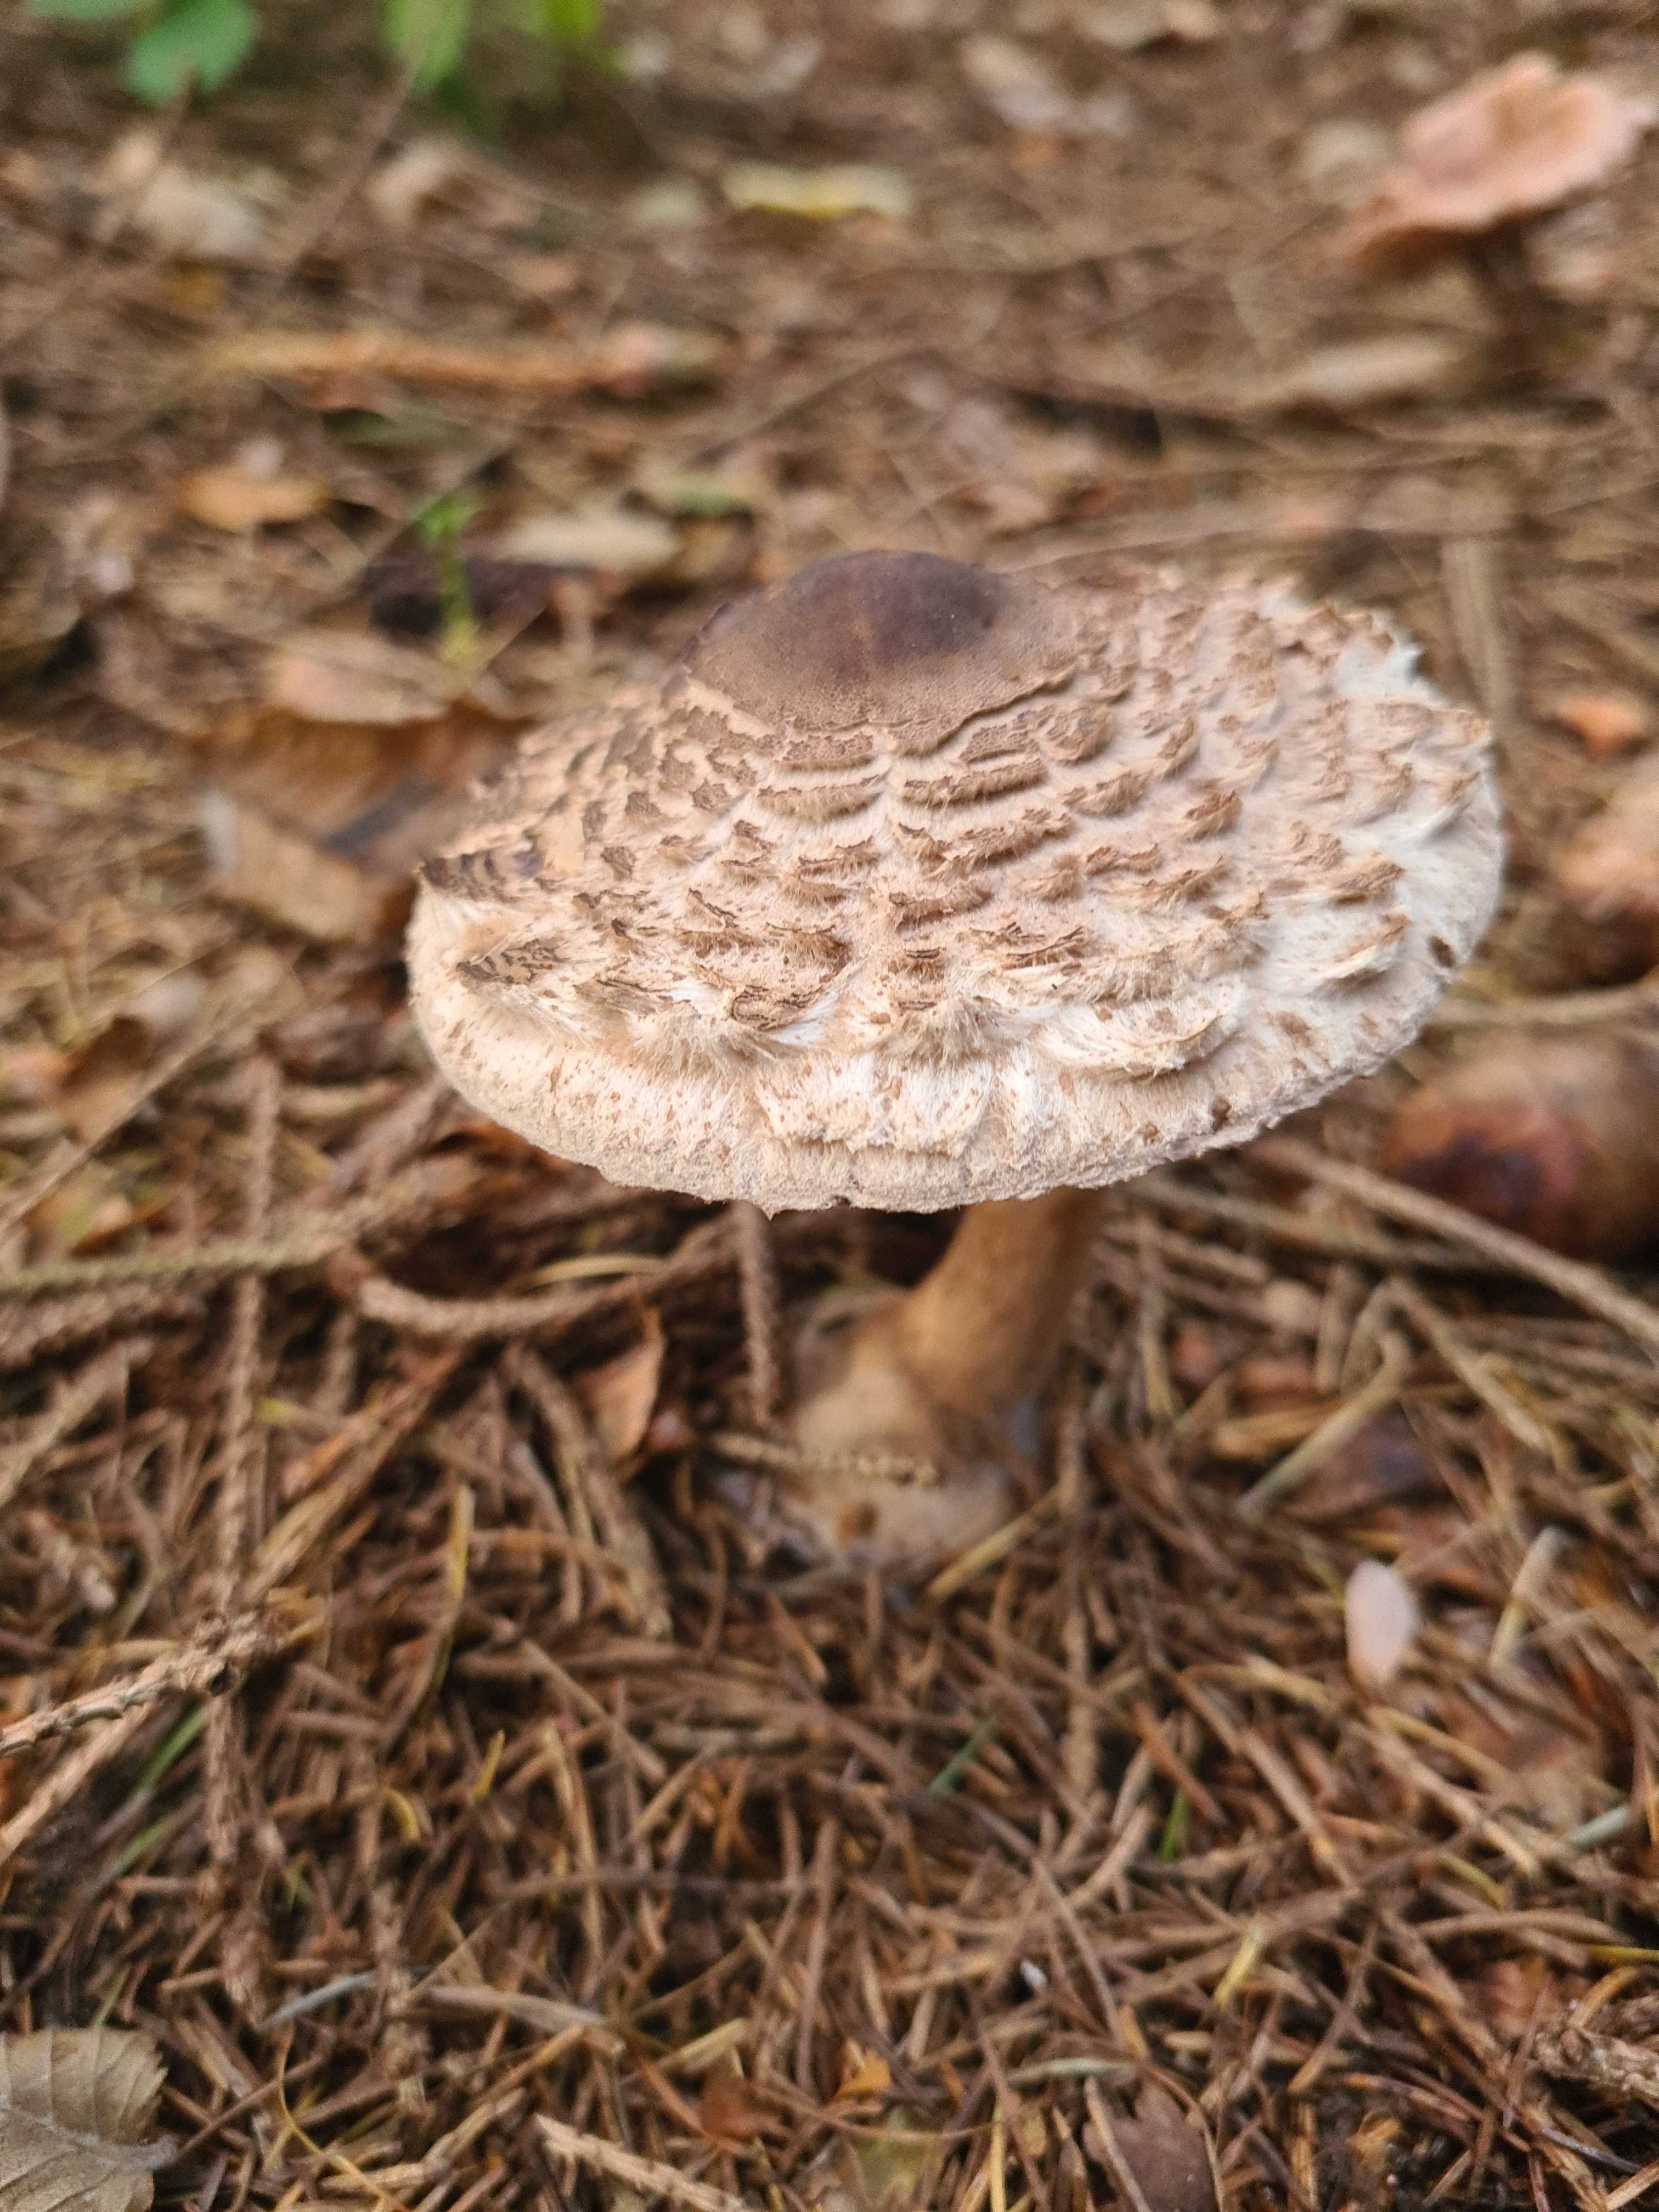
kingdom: Fungi
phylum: Basidiomycota
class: Agaricomycetes
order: Agaricales
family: Agaricaceae
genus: Chlorophyllum
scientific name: Chlorophyllum olivieri
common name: almindelig rabarberhat
